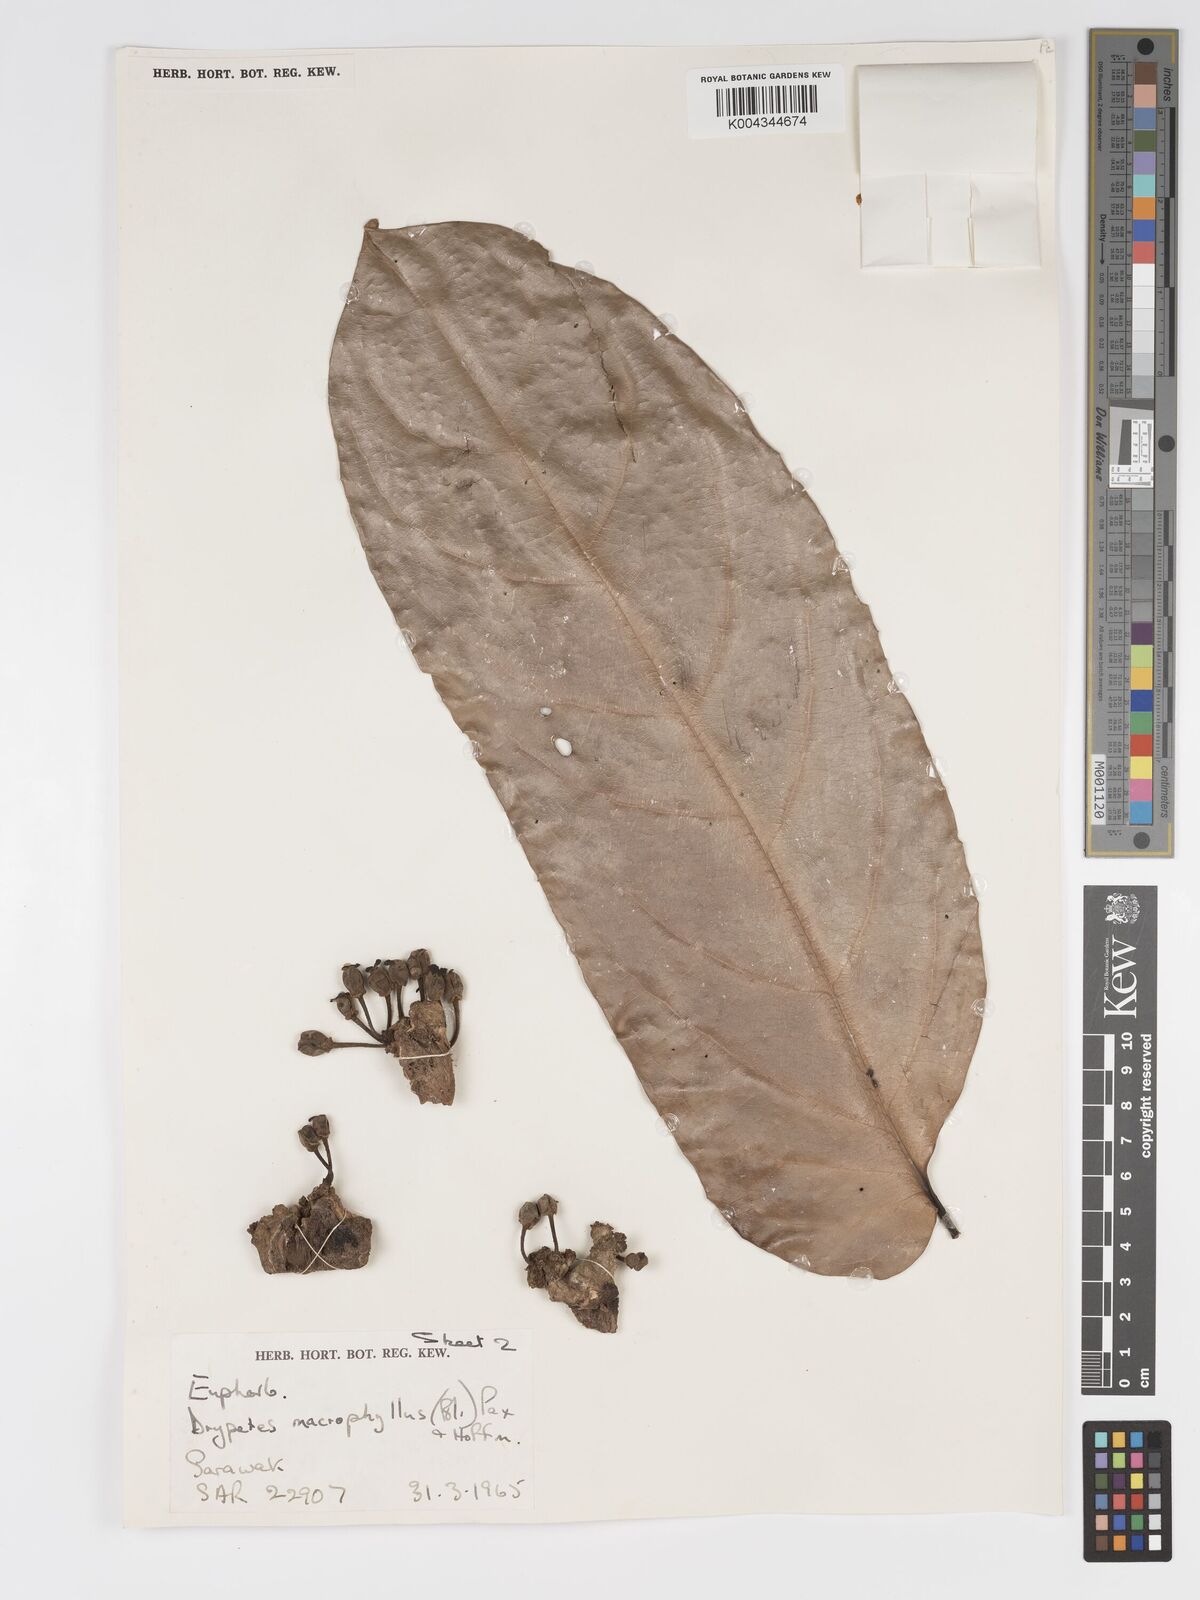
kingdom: Plantae
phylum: Tracheophyta
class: Magnoliopsida
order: Malpighiales
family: Putranjivaceae
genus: Drypetes
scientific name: Drypetes longifolia
